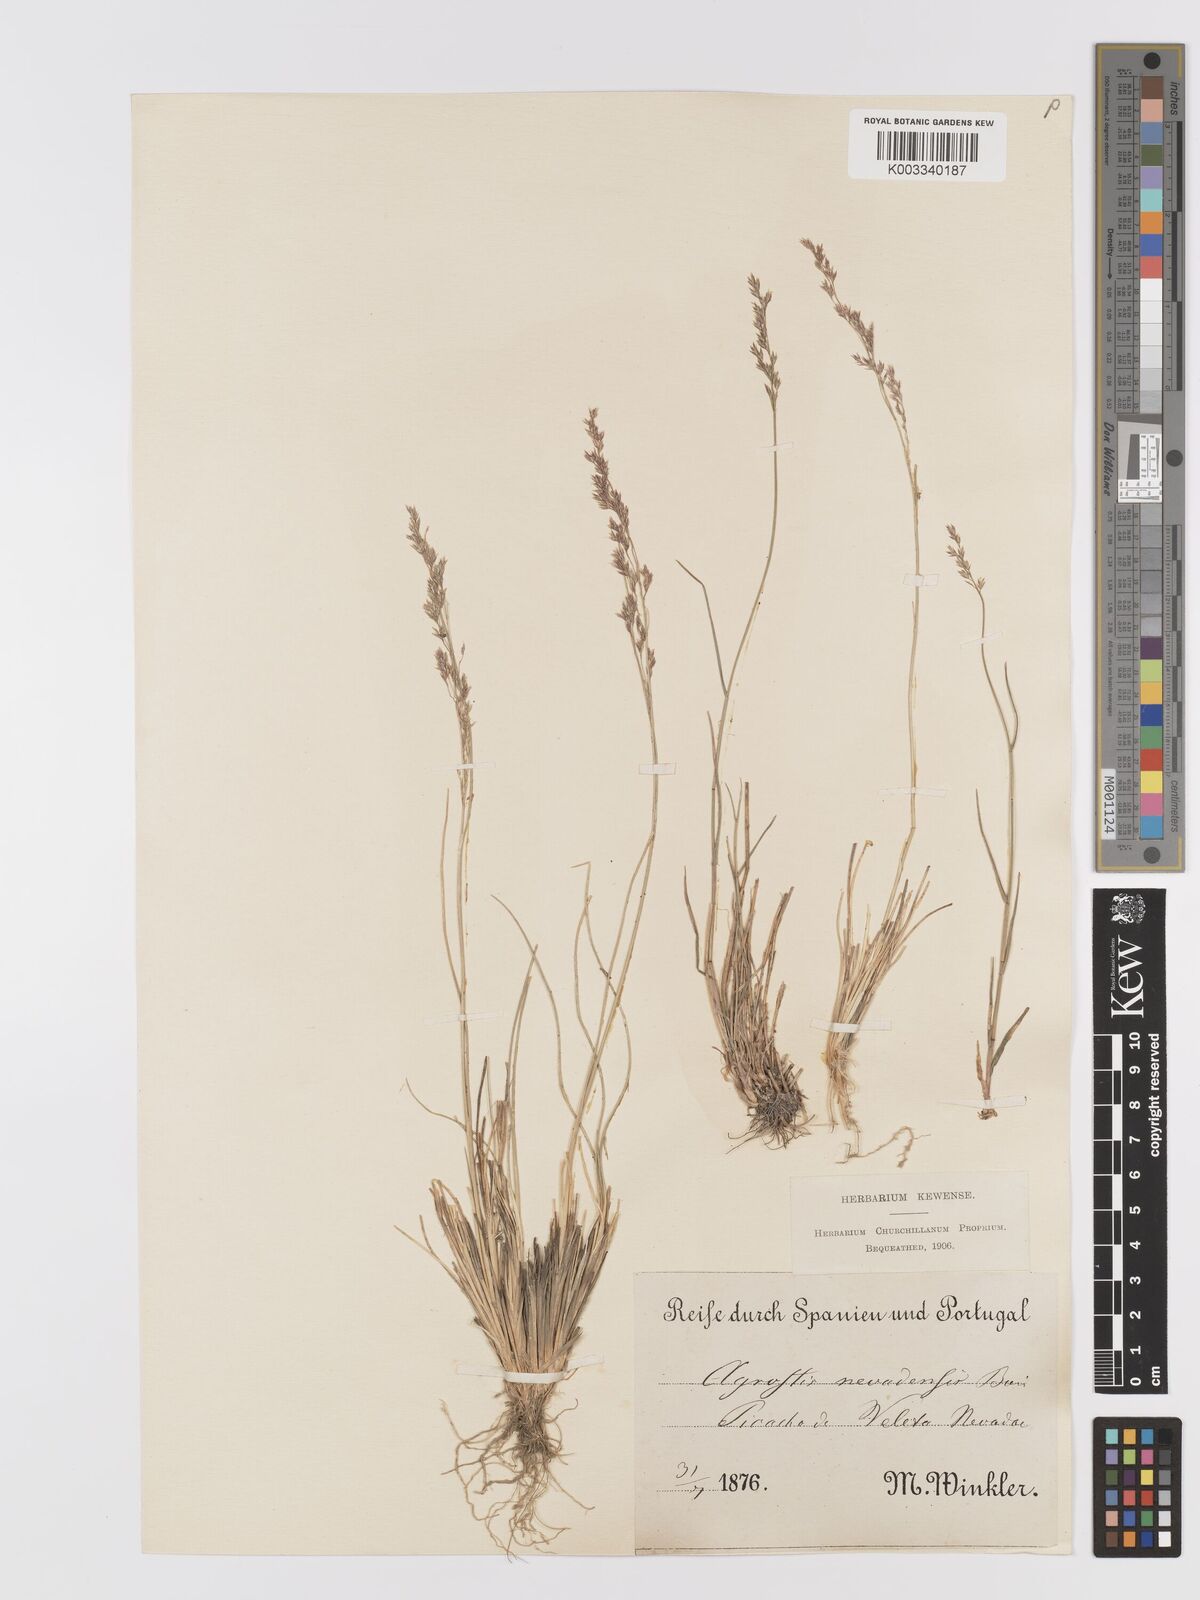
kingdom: Plantae
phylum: Tracheophyta
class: Liliopsida
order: Poales
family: Poaceae
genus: Agrostis
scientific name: Agrostis nevadensis
